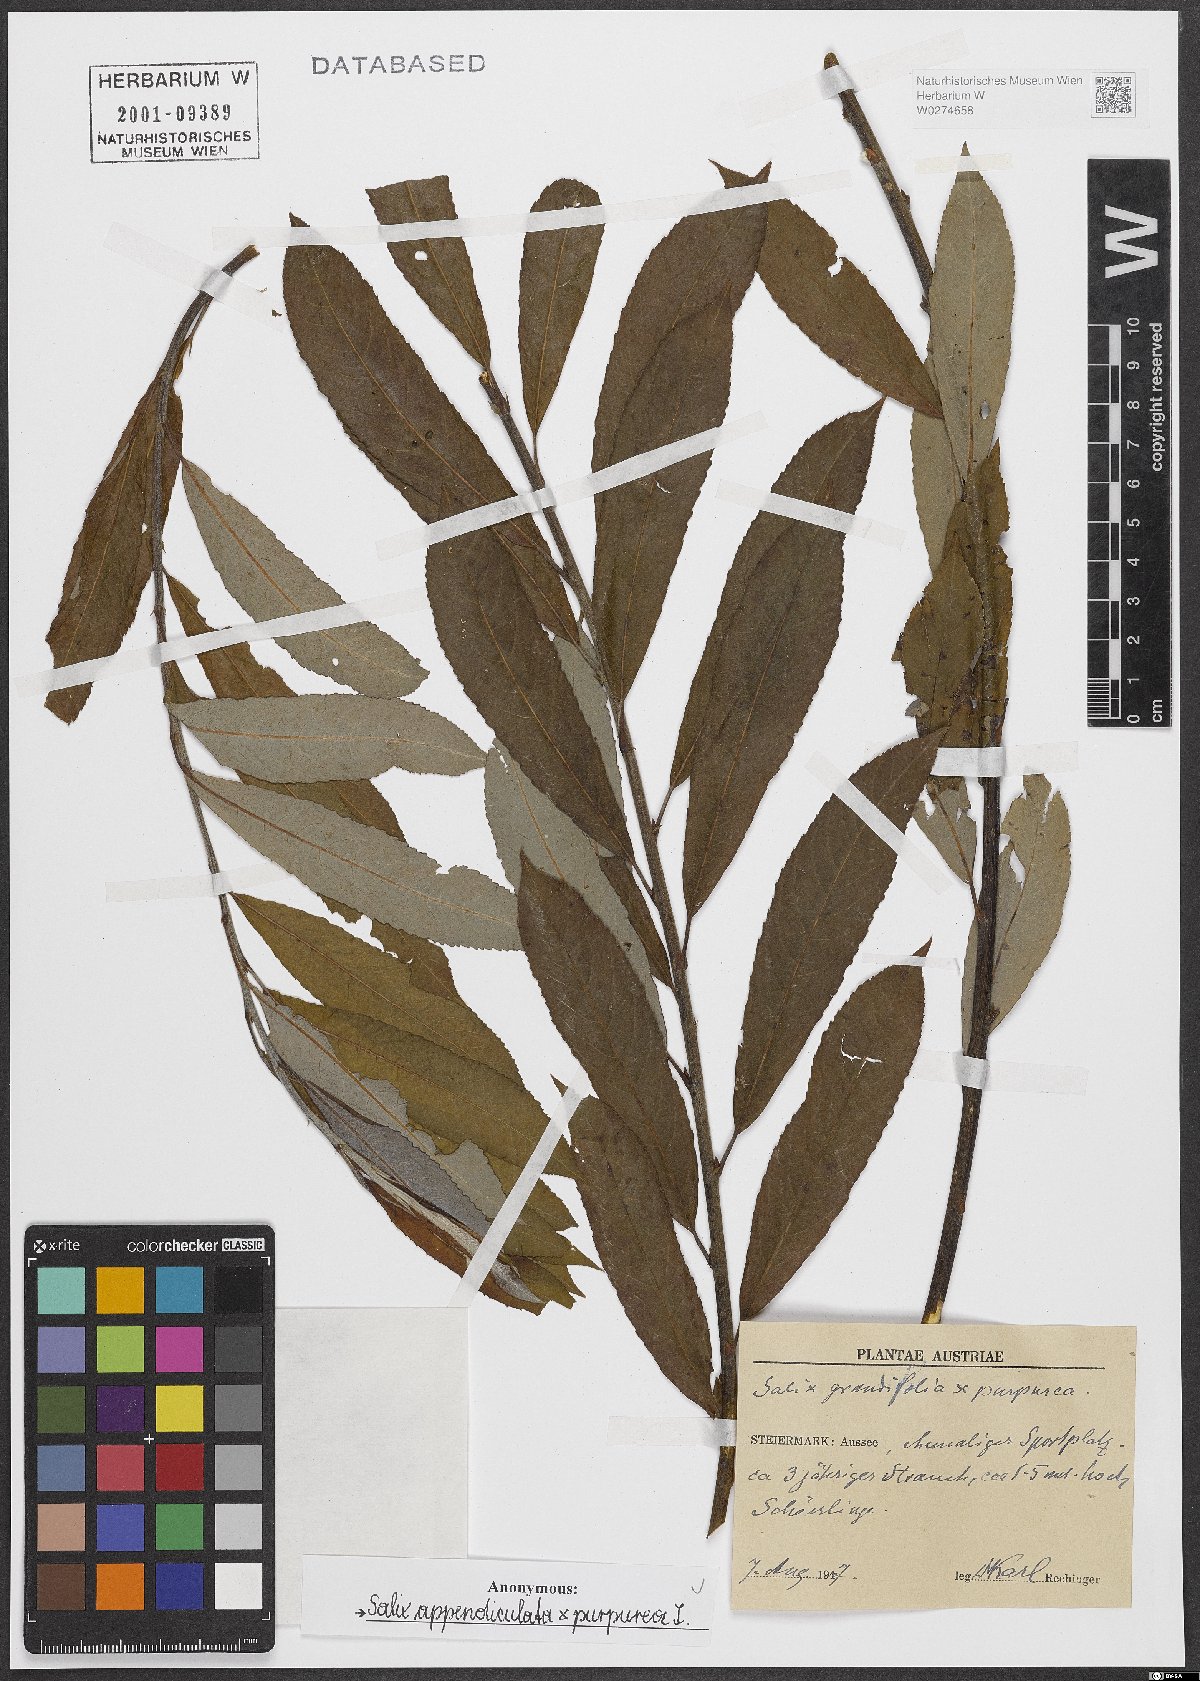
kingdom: Plantae
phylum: Tracheophyta
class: Magnoliopsida
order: Malpighiales
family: Salicaceae
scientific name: Salicaceae
